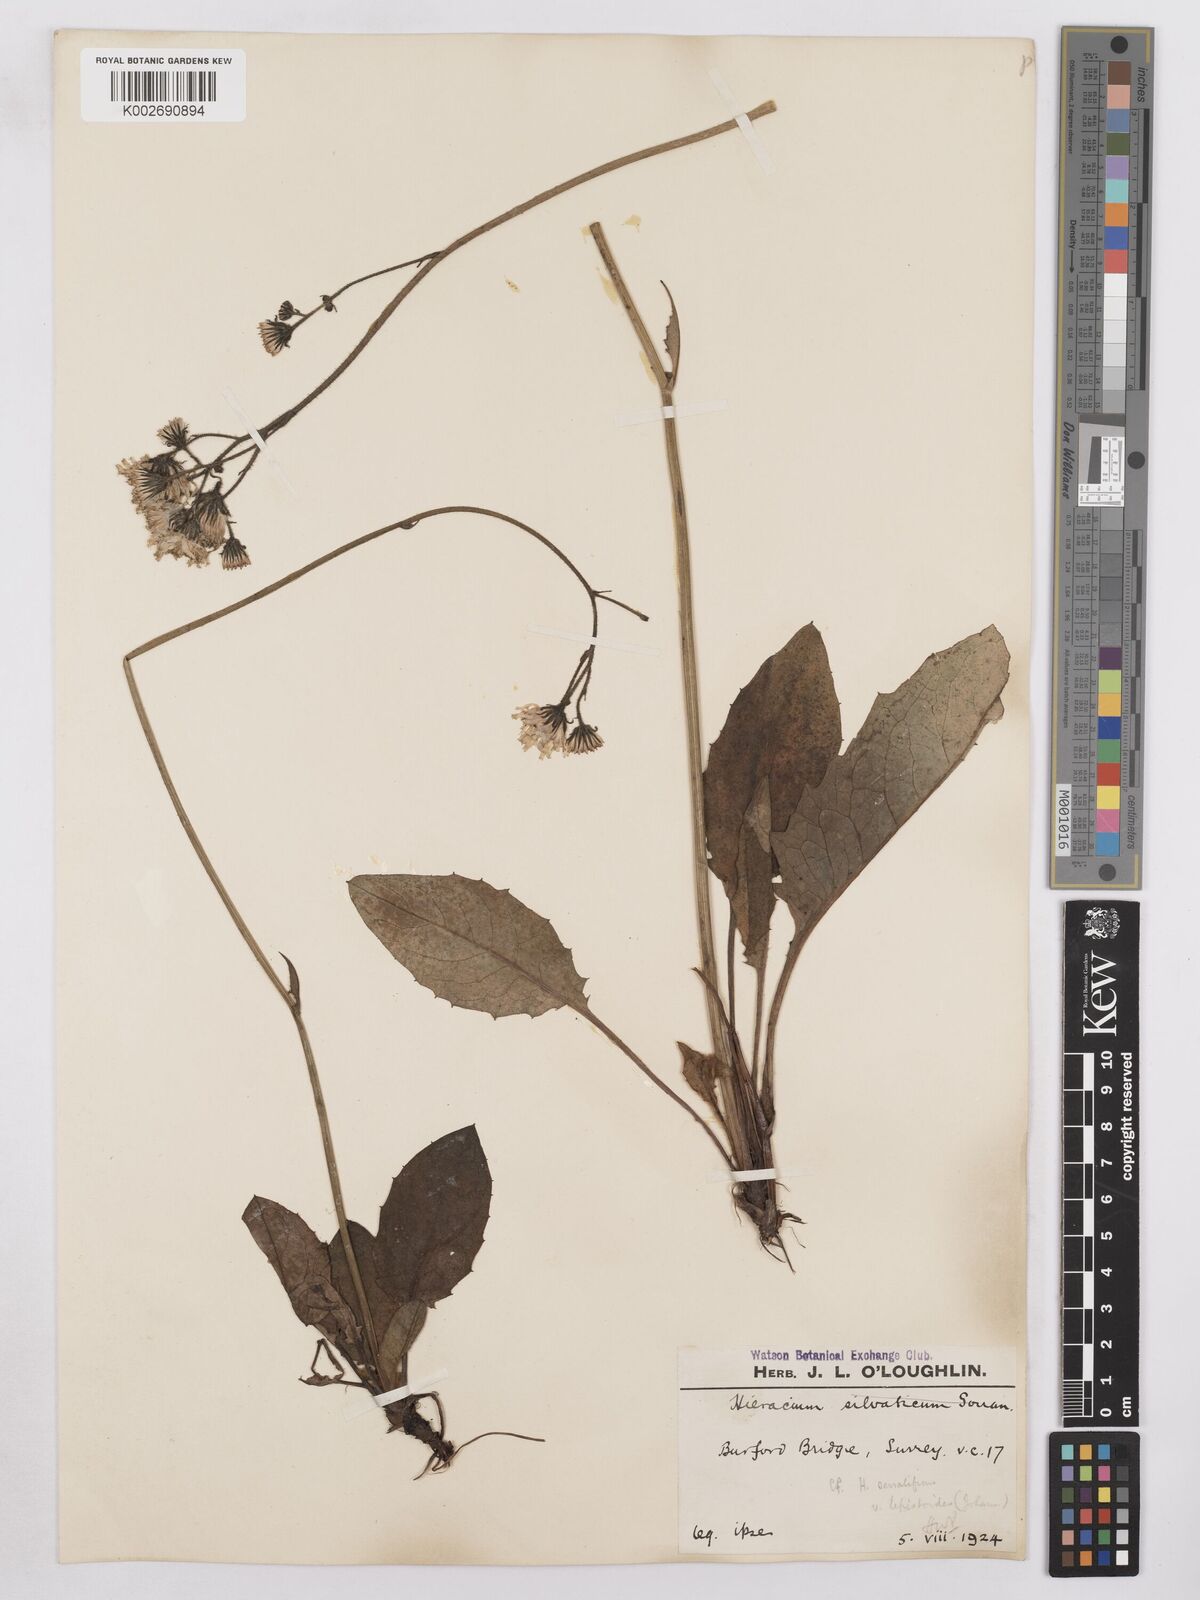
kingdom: Plantae
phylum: Tracheophyta
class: Magnoliopsida
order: Asterales
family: Asteraceae
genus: Hieracium
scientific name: Hieracium murorum
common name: Wall hawkweed
